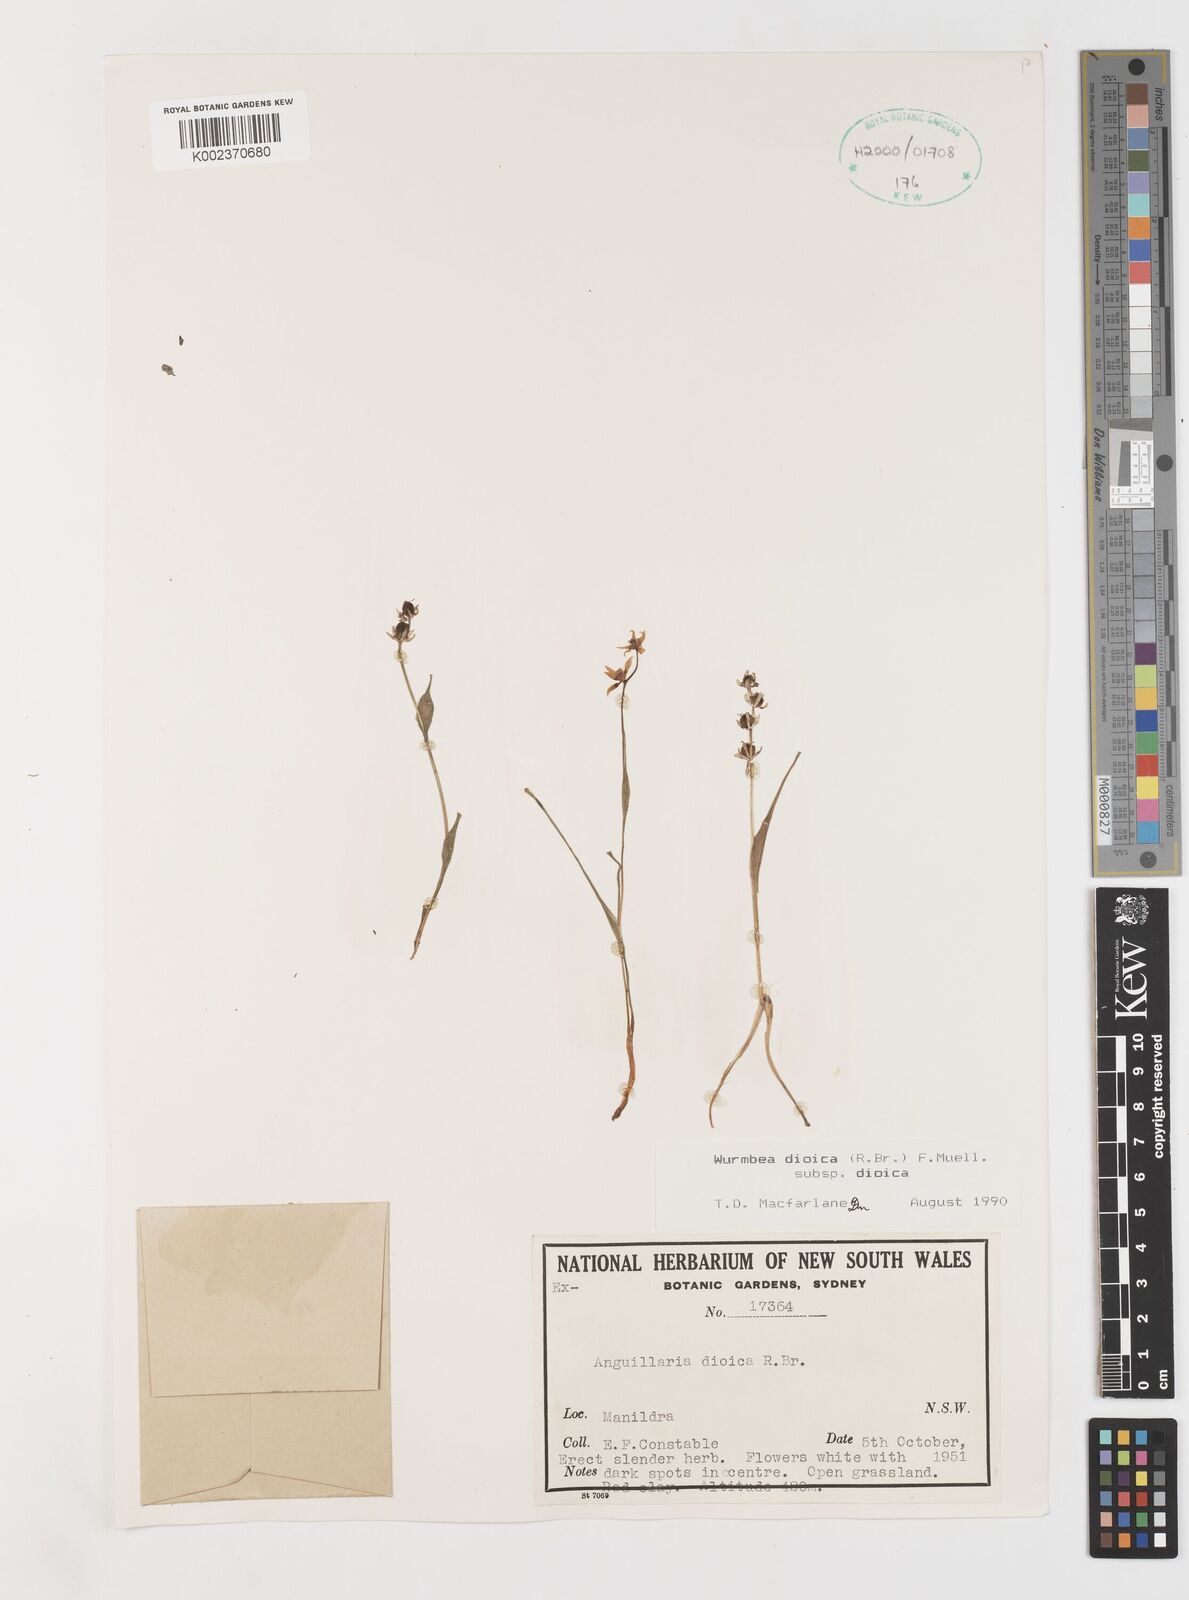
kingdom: Plantae
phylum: Tracheophyta
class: Liliopsida
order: Liliales
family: Colchicaceae
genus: Wurmbea
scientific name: Wurmbea dioica
